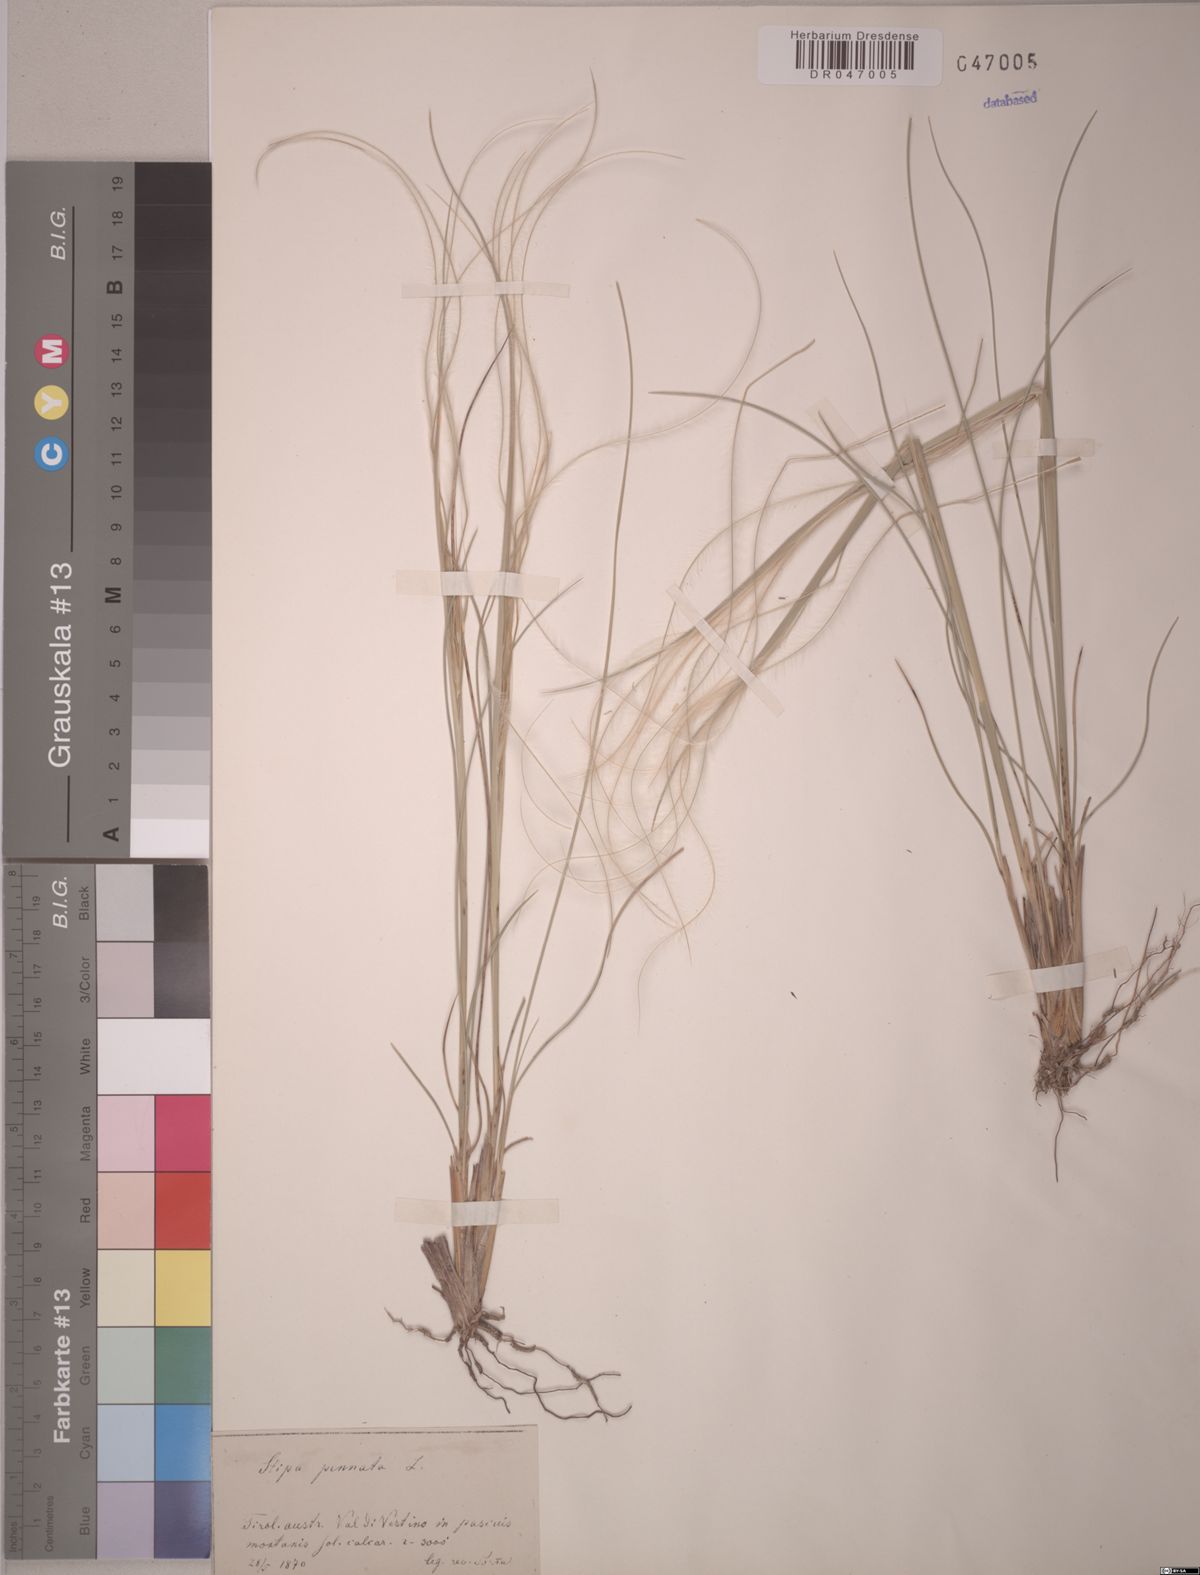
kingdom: Plantae
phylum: Tracheophyta
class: Liliopsida
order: Poales
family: Poaceae
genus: Stipa
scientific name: Stipa pennata
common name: European feather grass
